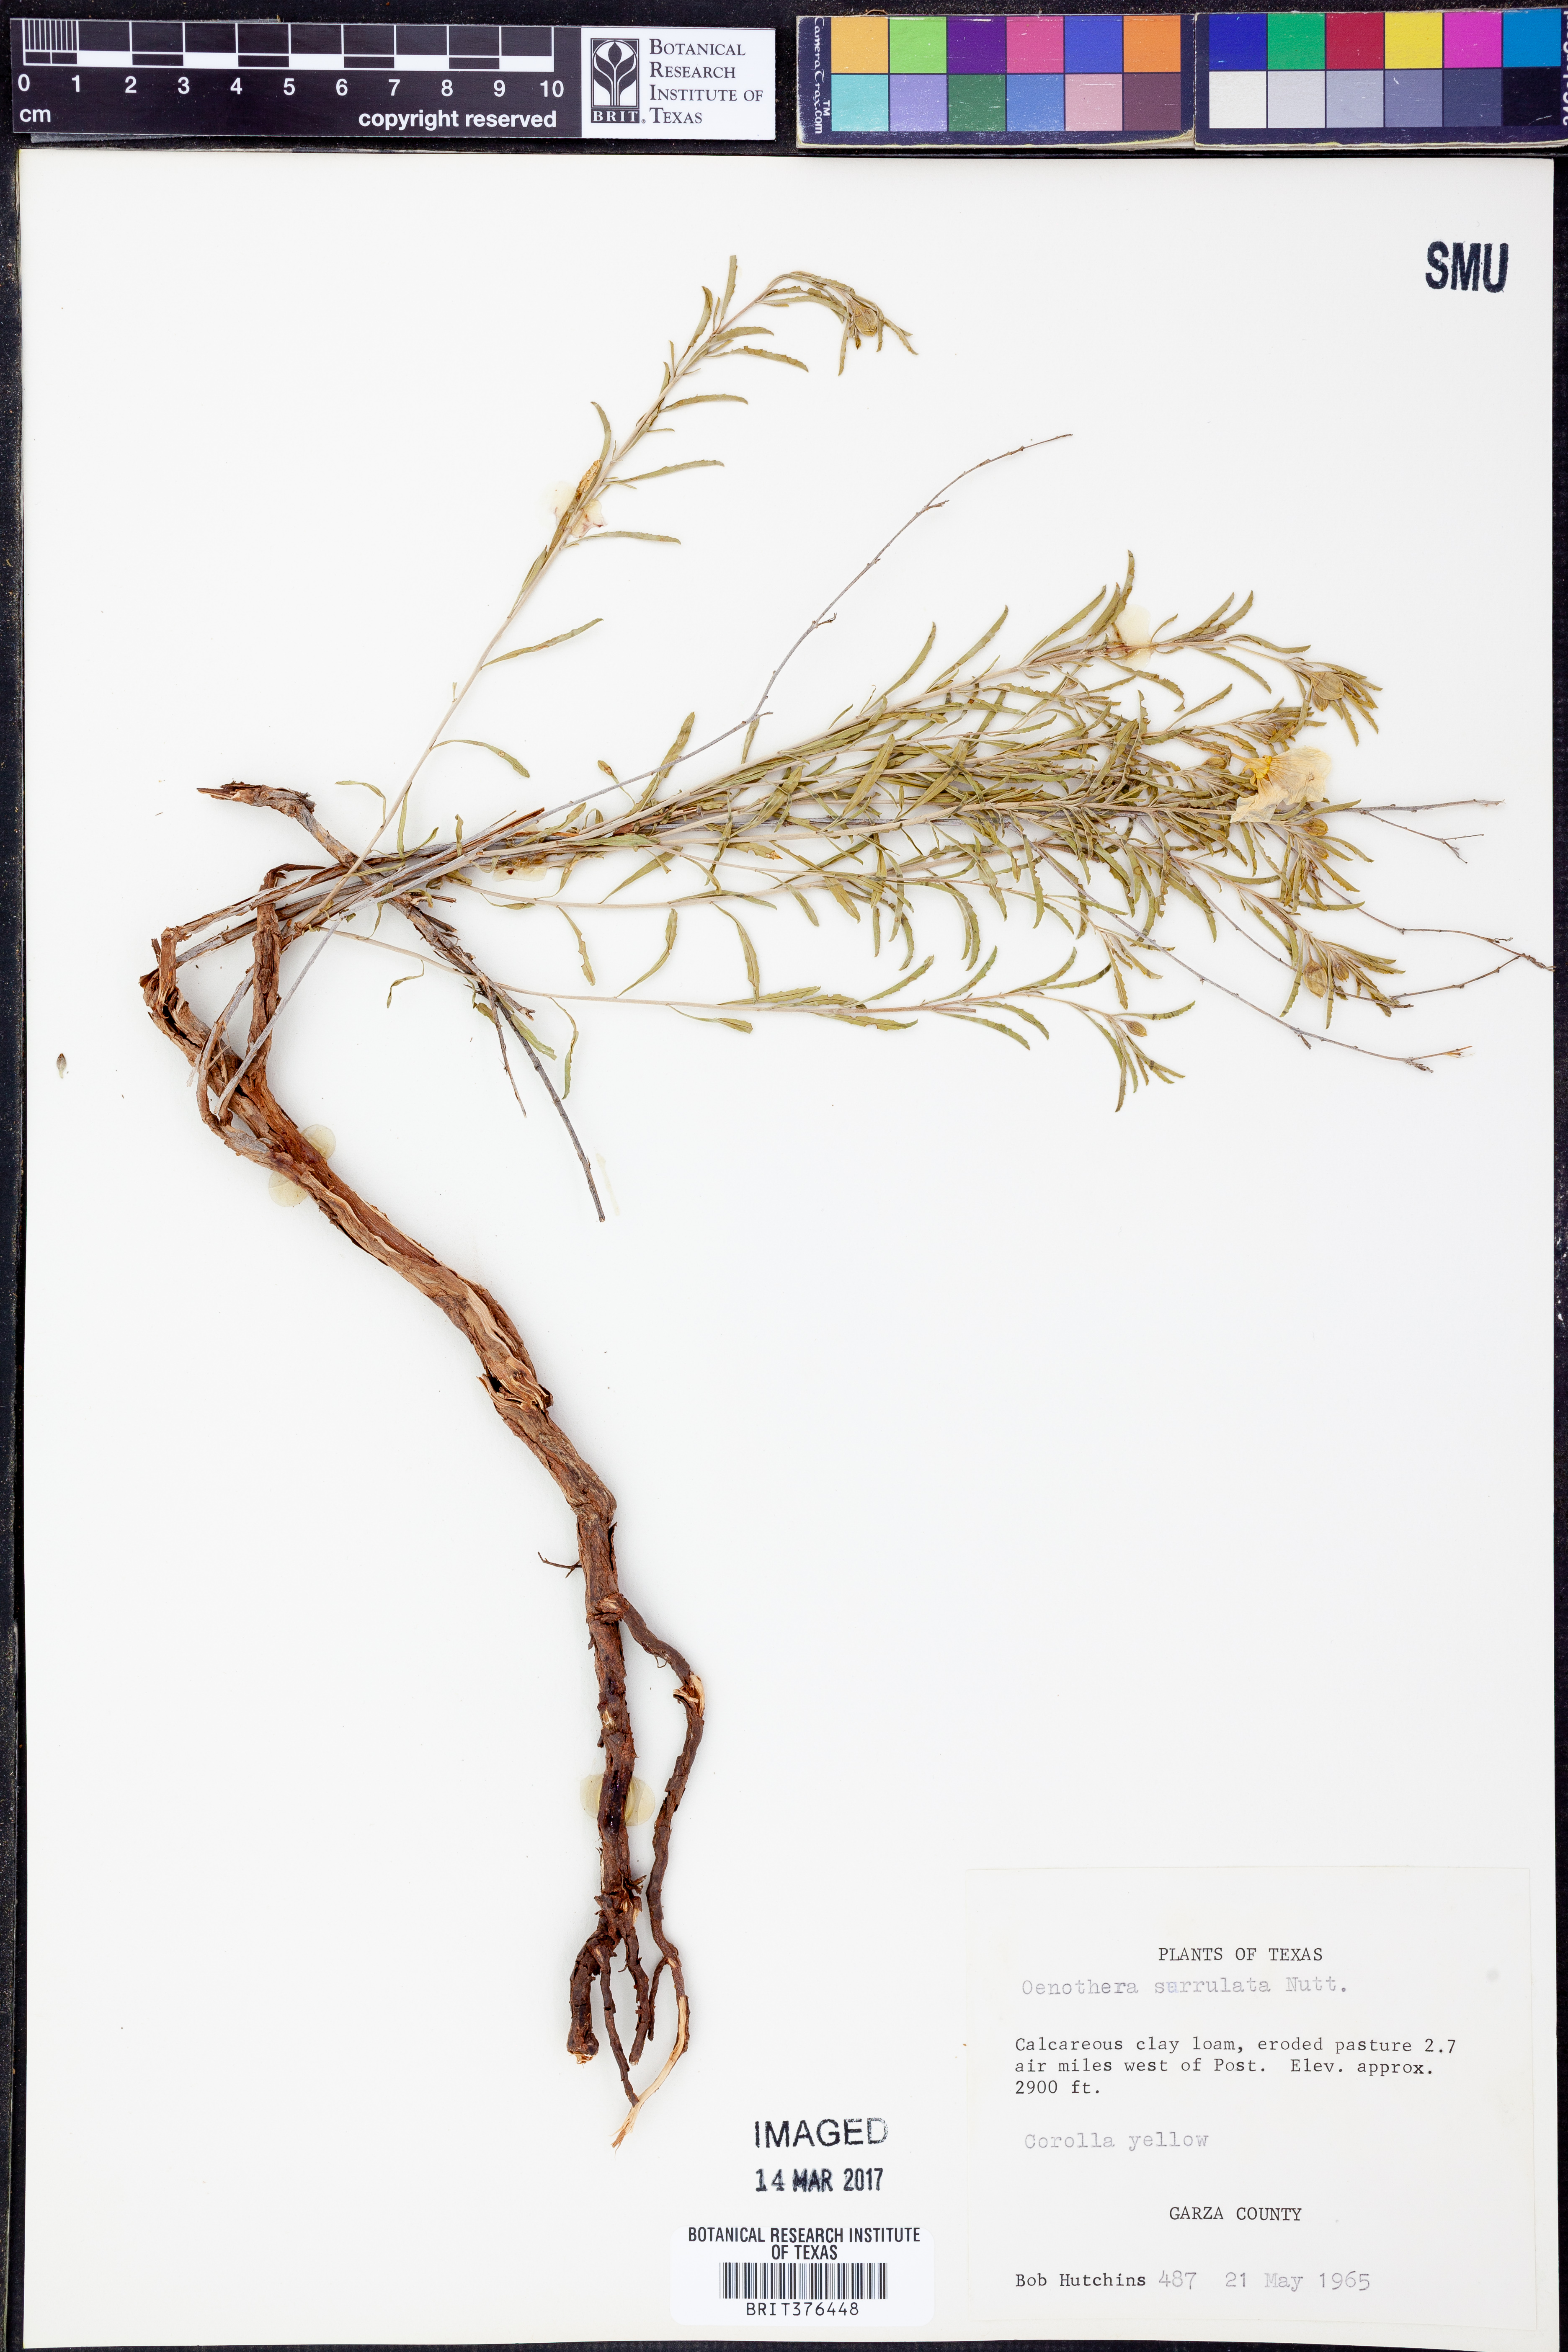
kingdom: Plantae
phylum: Tracheophyta
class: Magnoliopsida
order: Myrtales
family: Onagraceae
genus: Oenothera
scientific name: Oenothera serrulata
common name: Half-shrub calylophus
